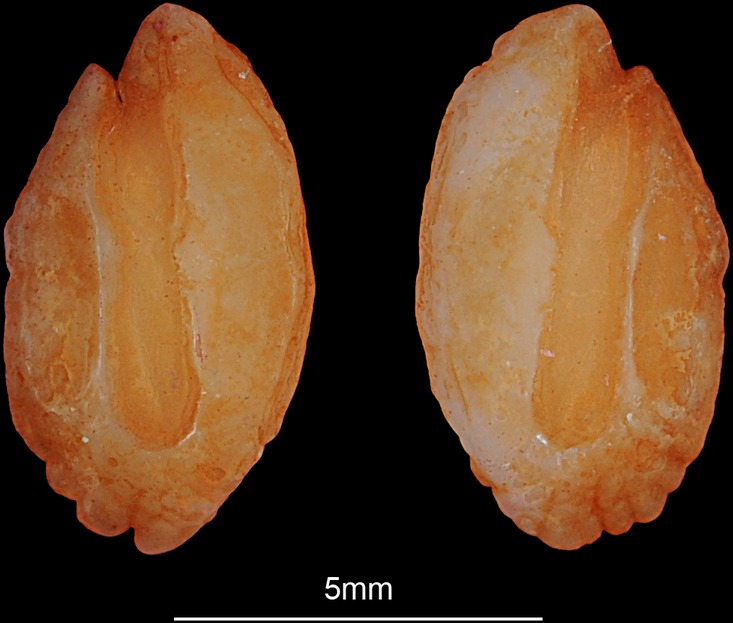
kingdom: Animalia
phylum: Chordata
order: Perciformes
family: Percidae
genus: Gymnocephalus
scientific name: Gymnocephalus cernua
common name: Ruffe
